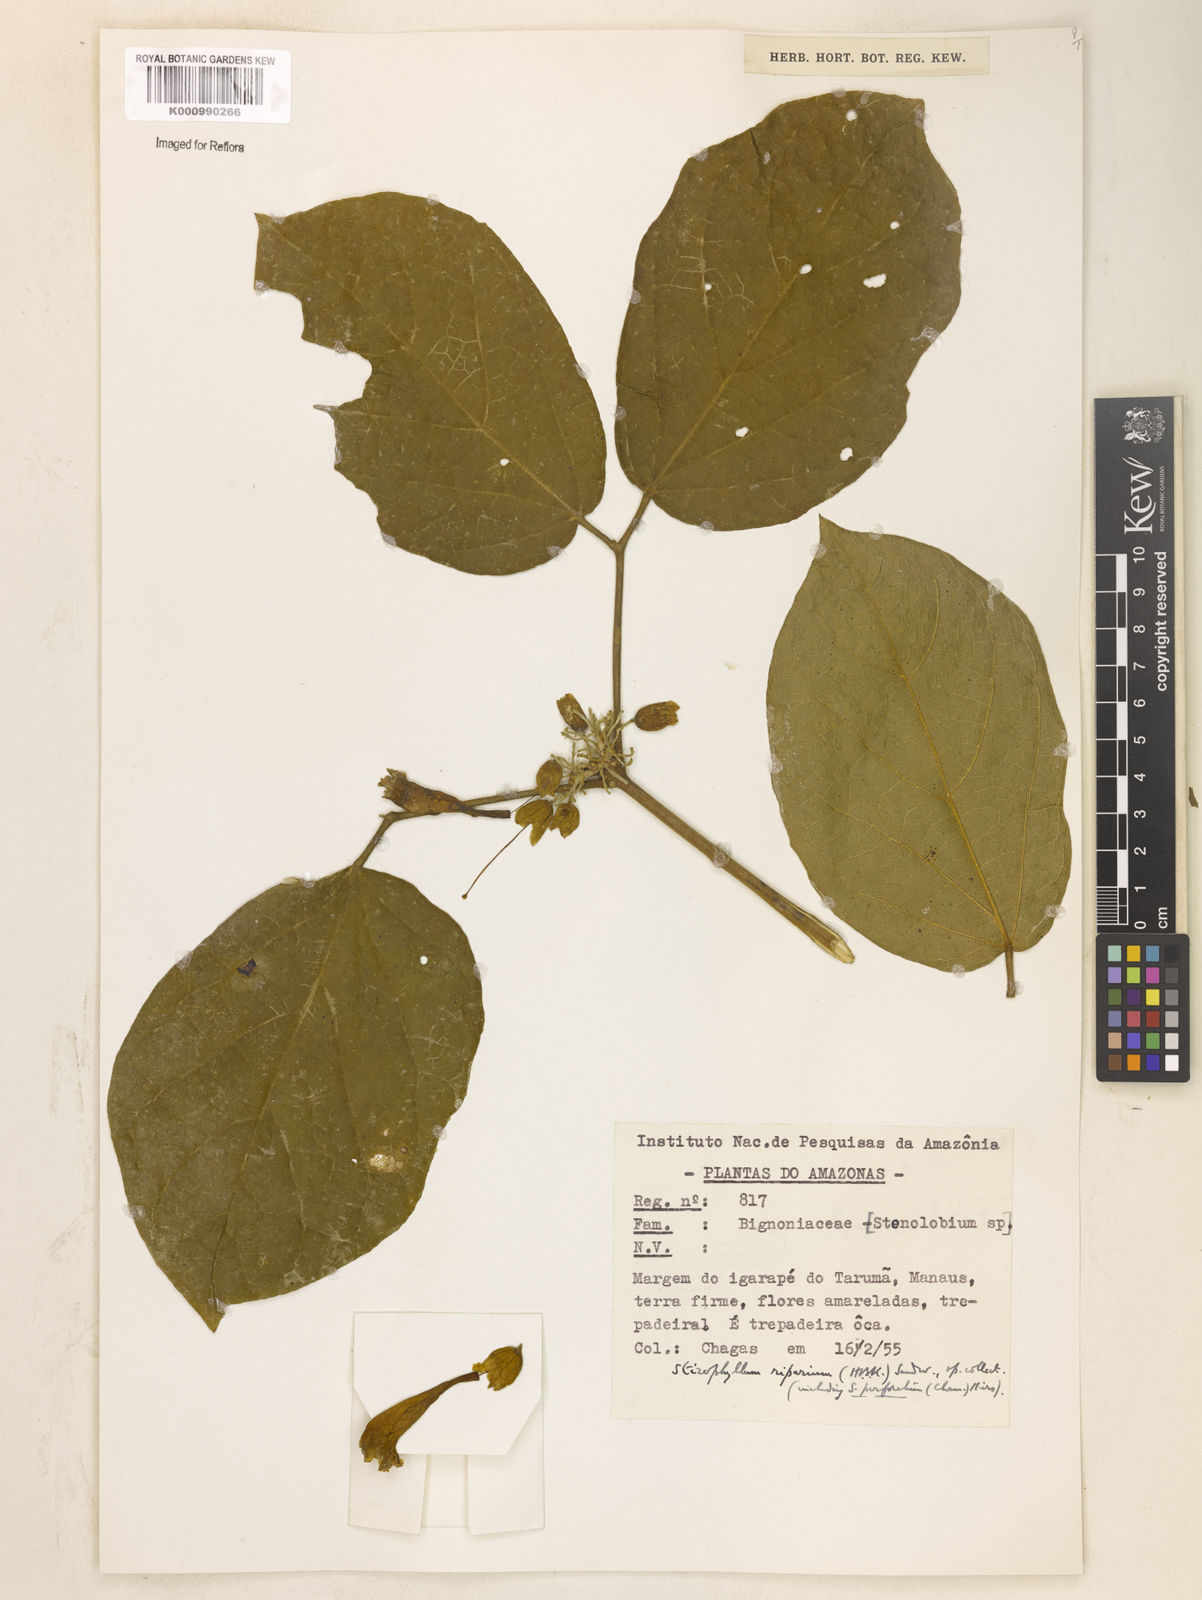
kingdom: Plantae
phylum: Tracheophyta
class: Magnoliopsida
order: Lamiales
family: Bignoniaceae
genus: Stizophyllum
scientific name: Stizophyllum riparium
